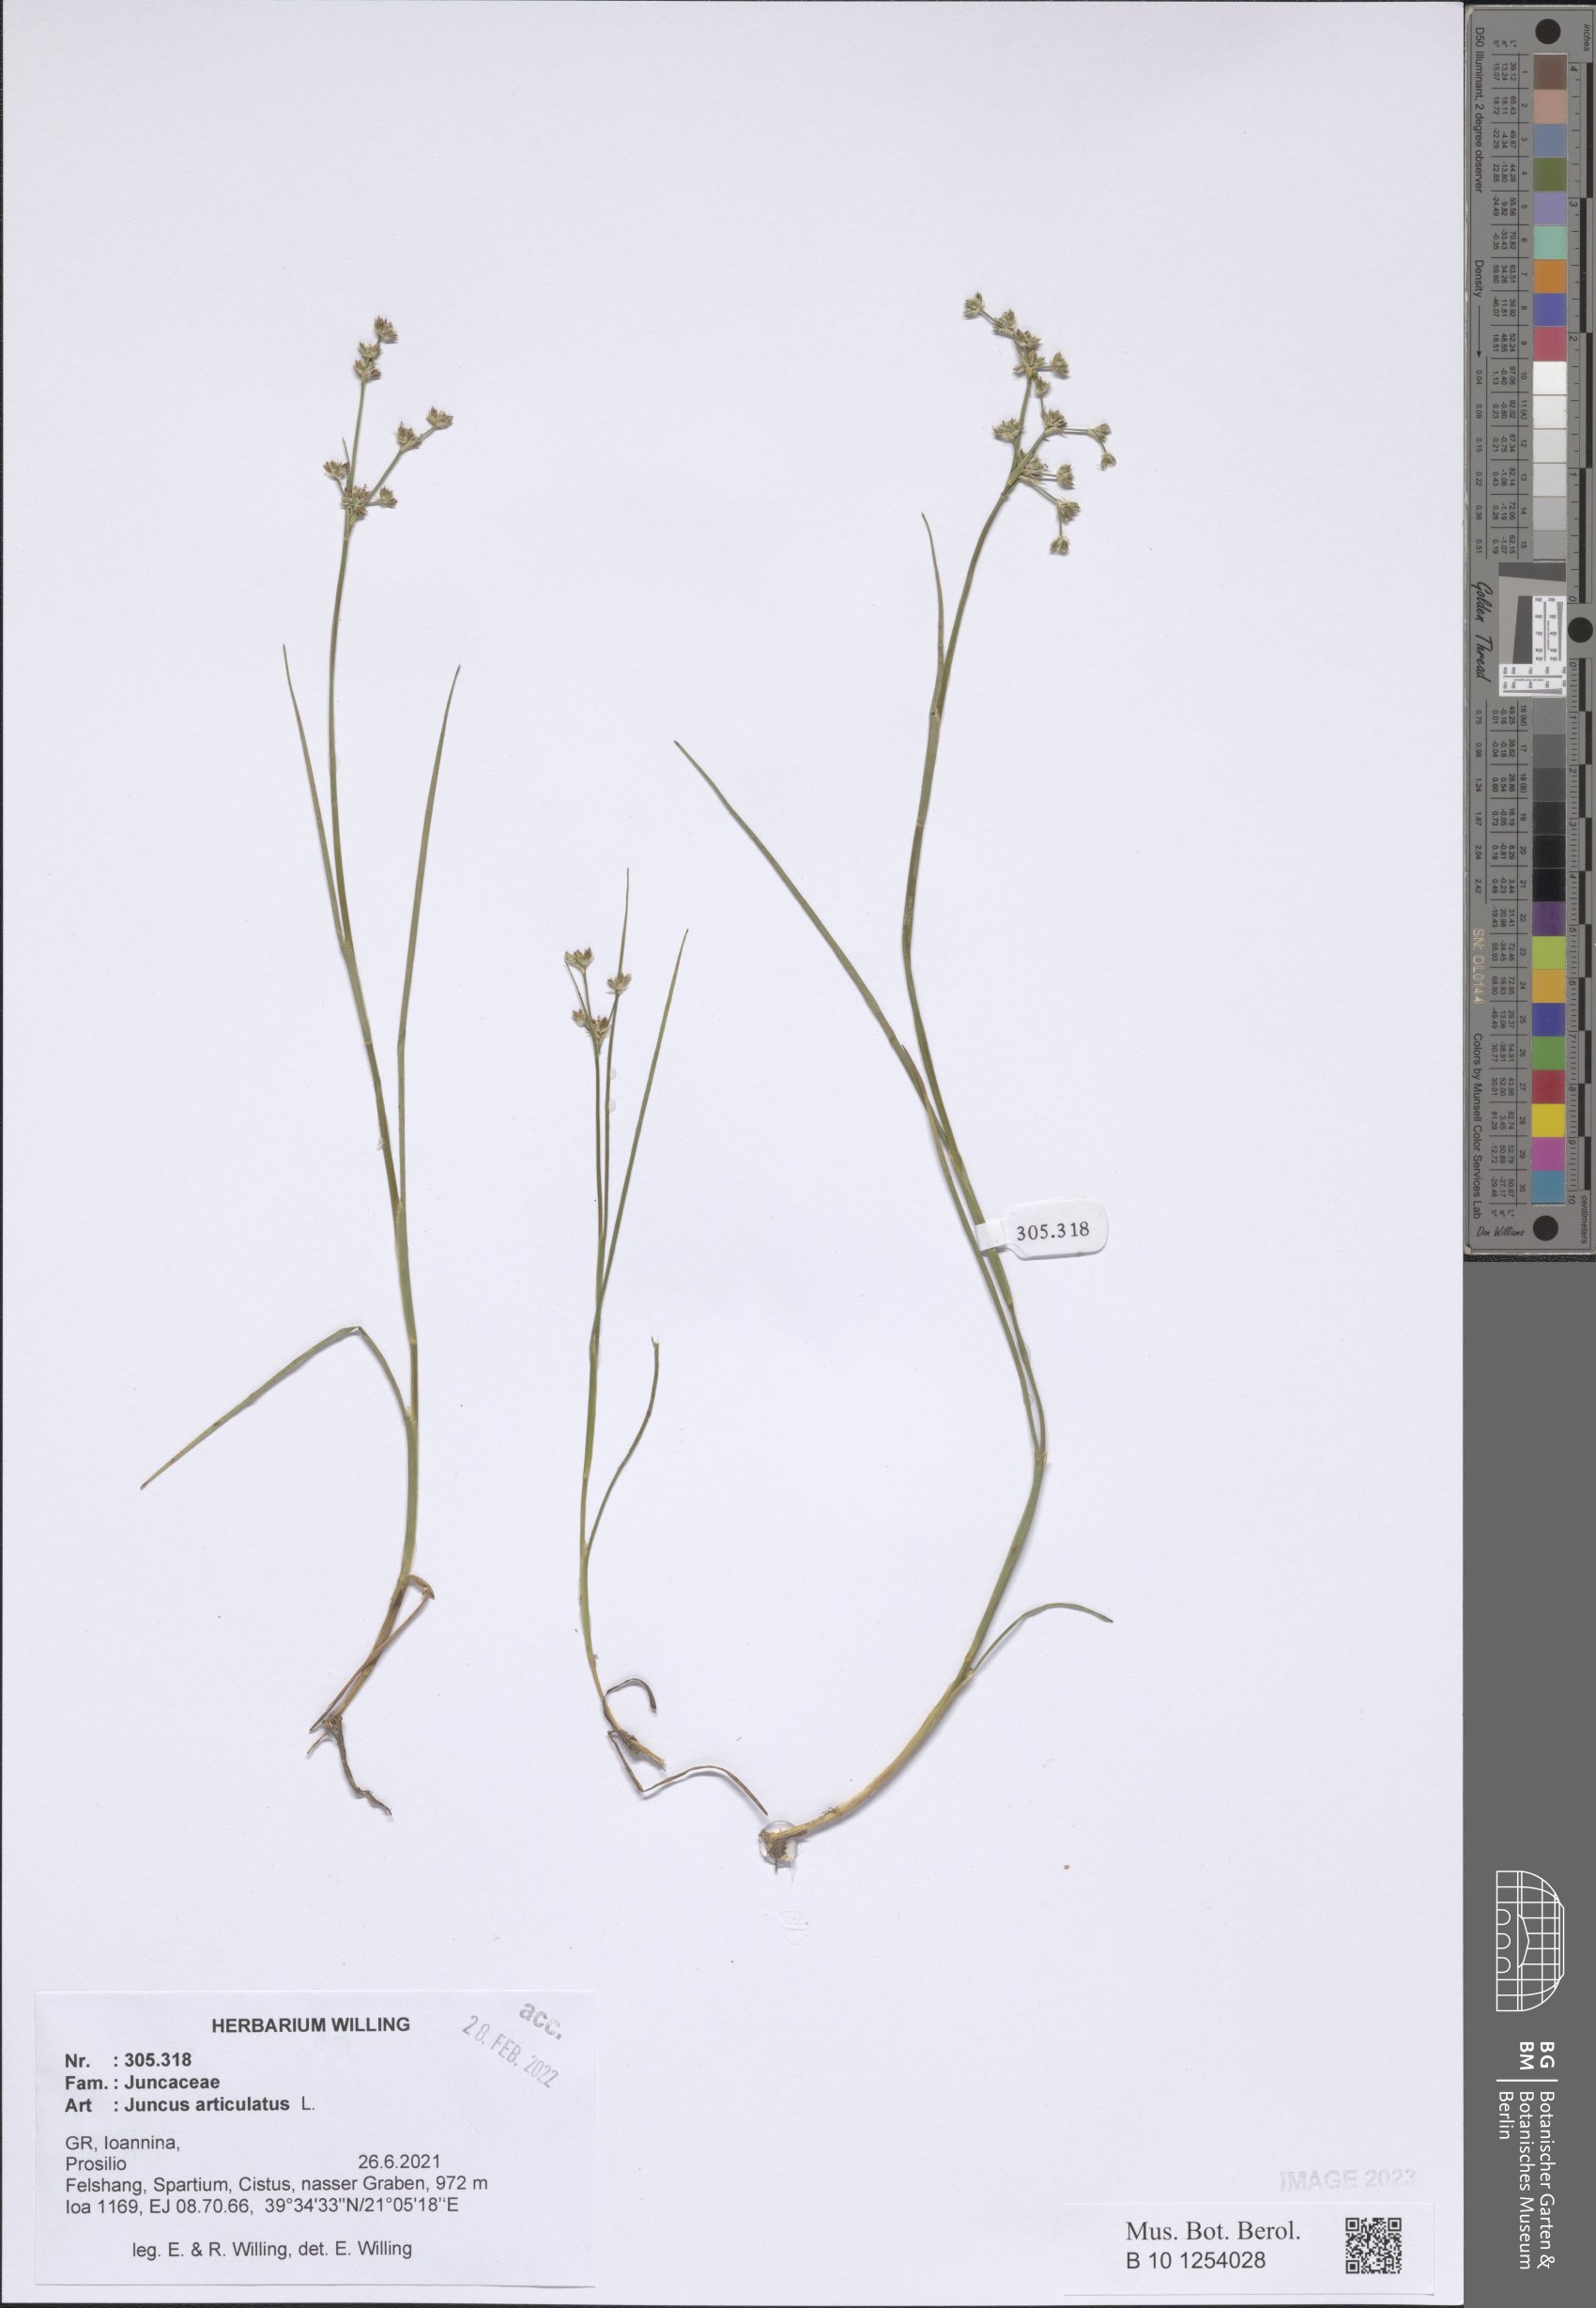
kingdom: Plantae
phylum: Tracheophyta
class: Liliopsida
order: Poales
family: Juncaceae
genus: Juncus
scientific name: Juncus articulatus
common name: Jointed rush
